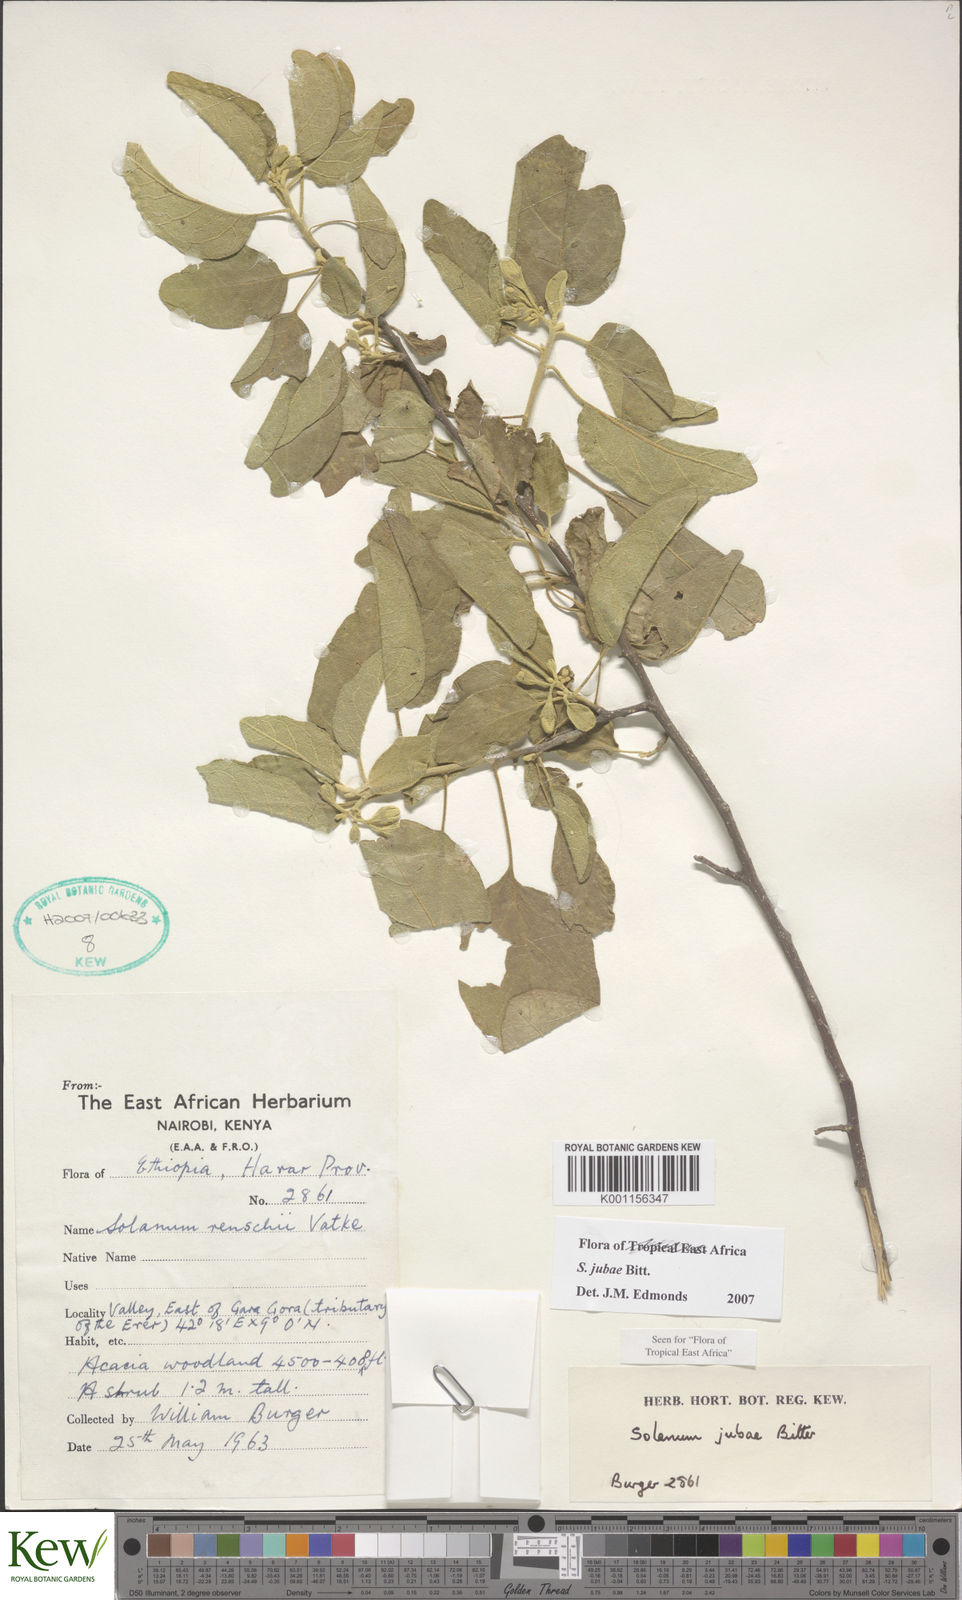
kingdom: Plantae
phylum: Tracheophyta
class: Magnoliopsida
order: Solanales
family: Solanaceae
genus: Solanum
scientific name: Solanum jubae
